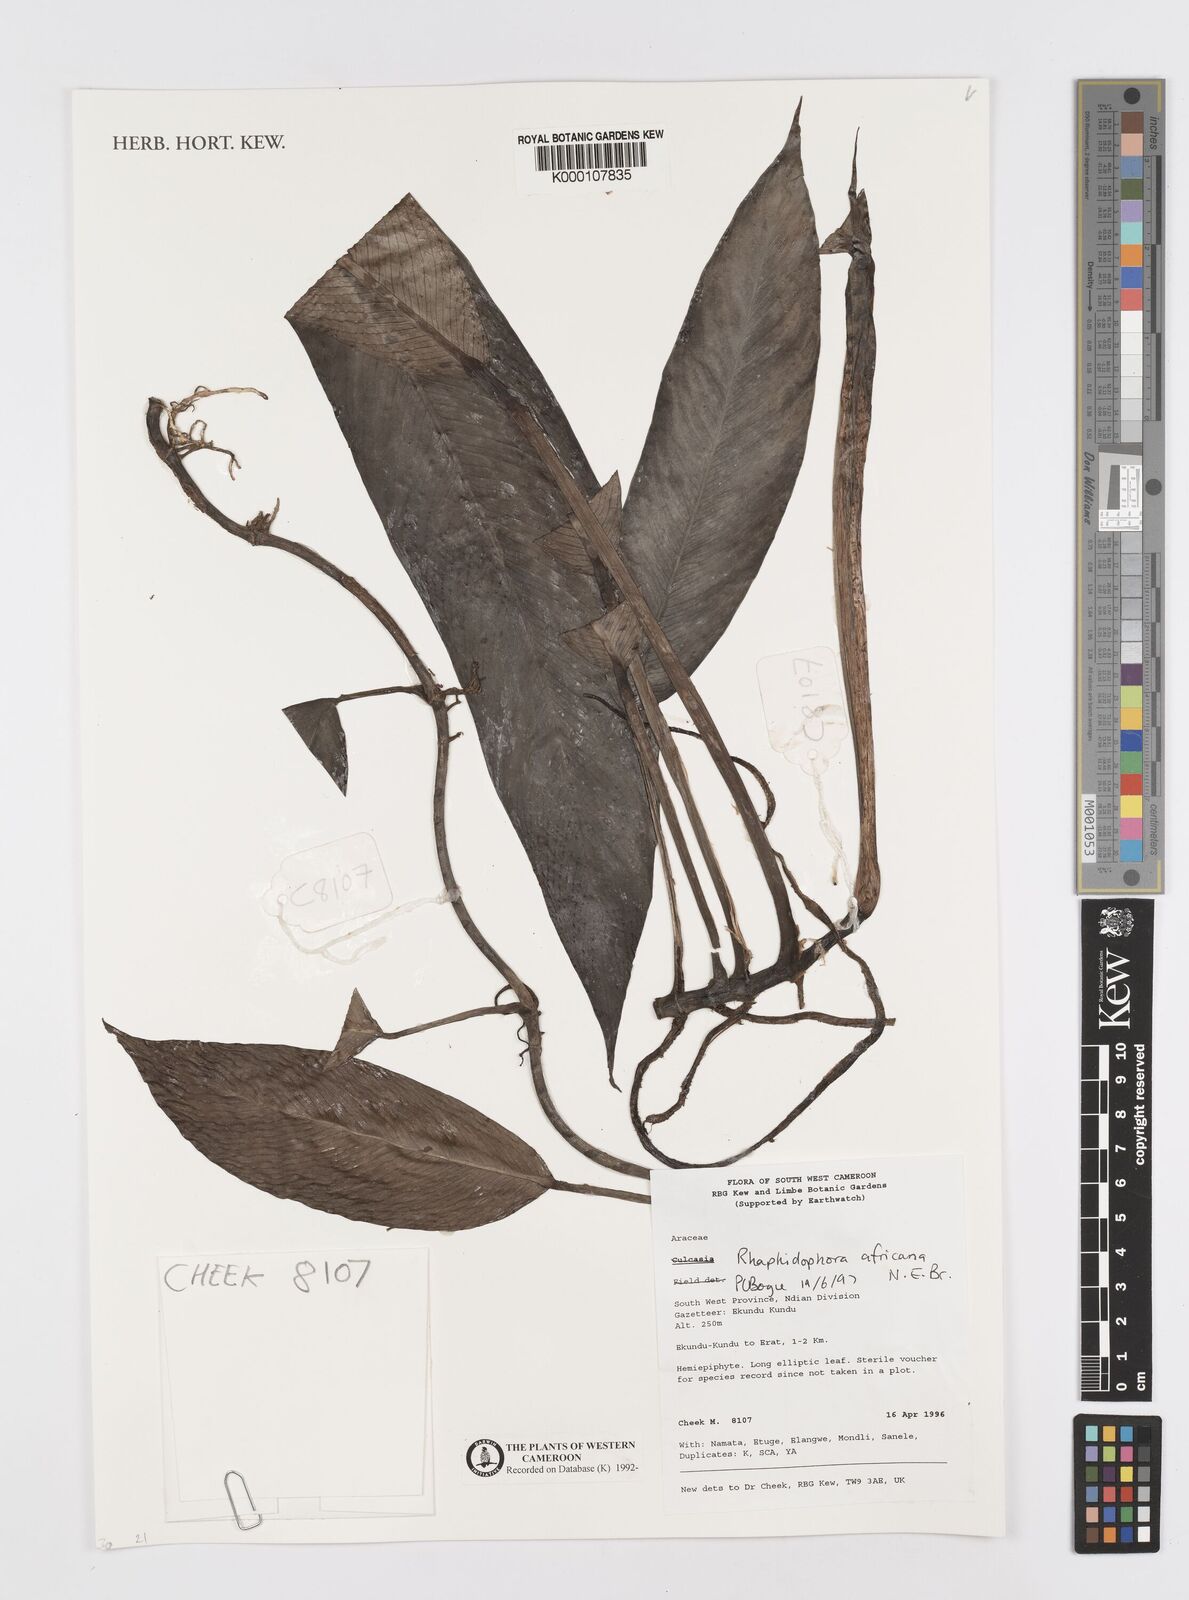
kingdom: Plantae
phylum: Tracheophyta
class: Liliopsida
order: Alismatales
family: Araceae
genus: Rhaphidophora
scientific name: Rhaphidophora africana
